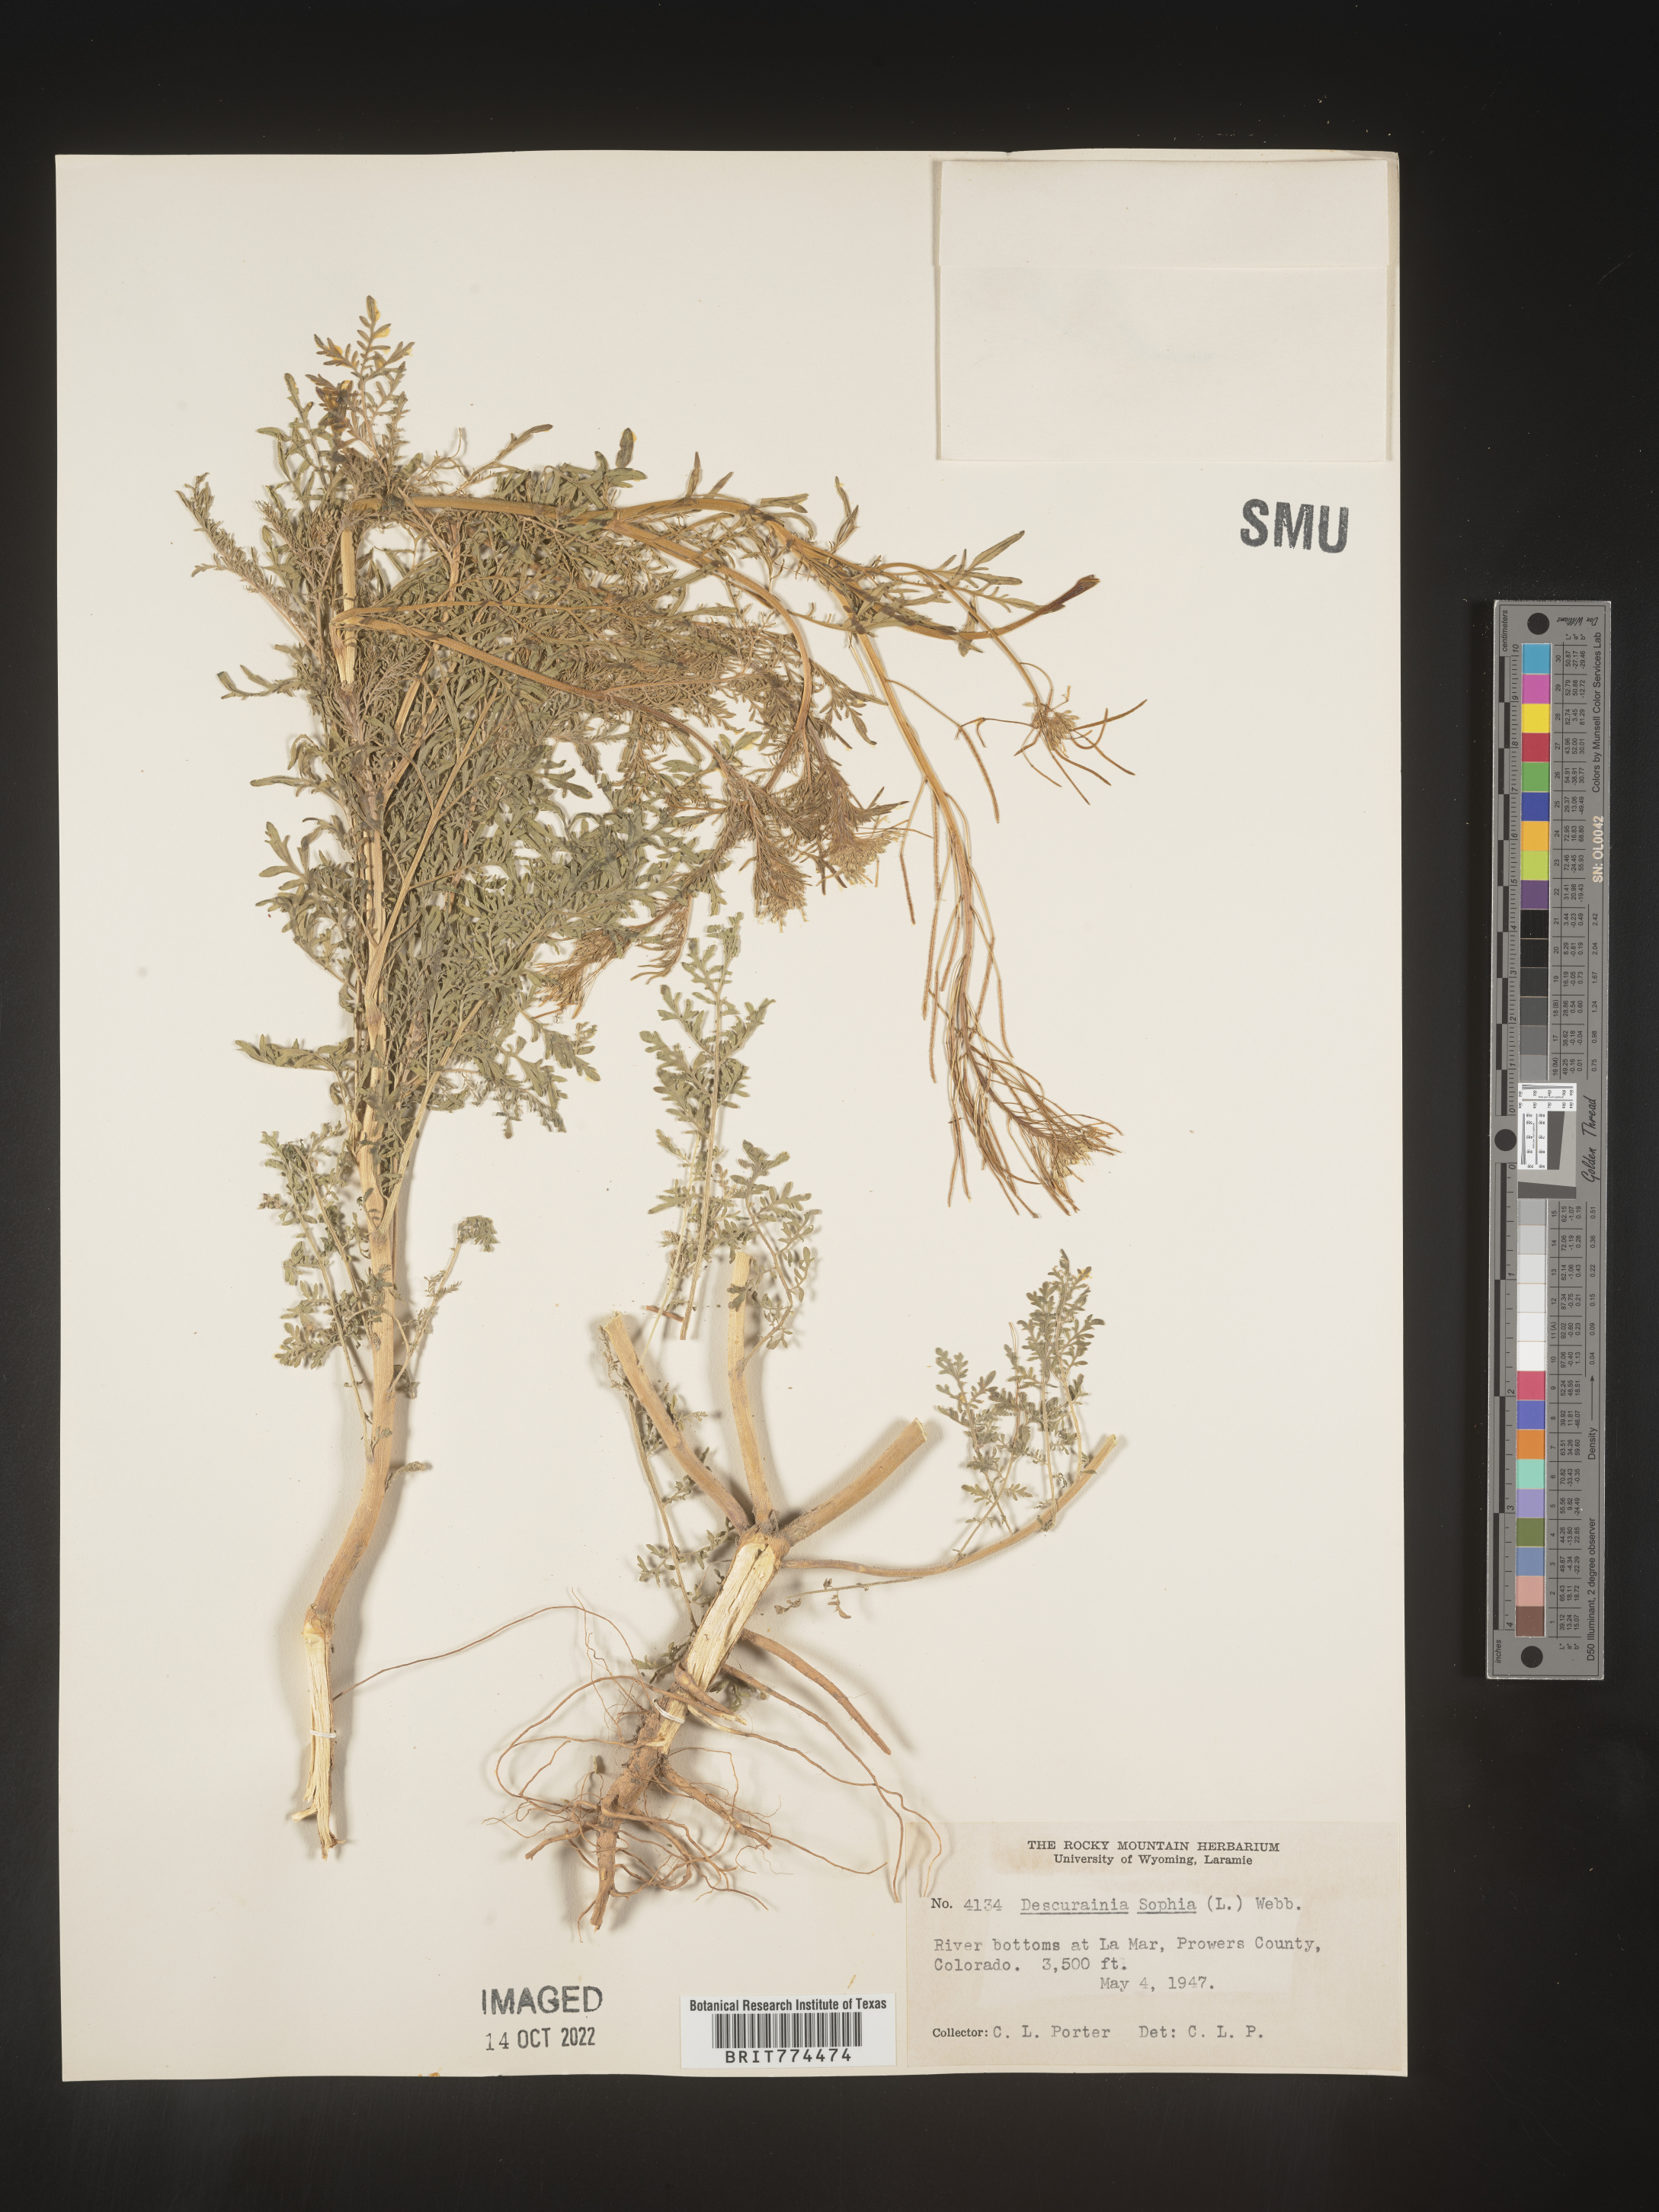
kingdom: Plantae
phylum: Tracheophyta
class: Magnoliopsida
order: Brassicales
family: Brassicaceae
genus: Descurainia
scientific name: Descurainia sophia
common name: Flixweed
